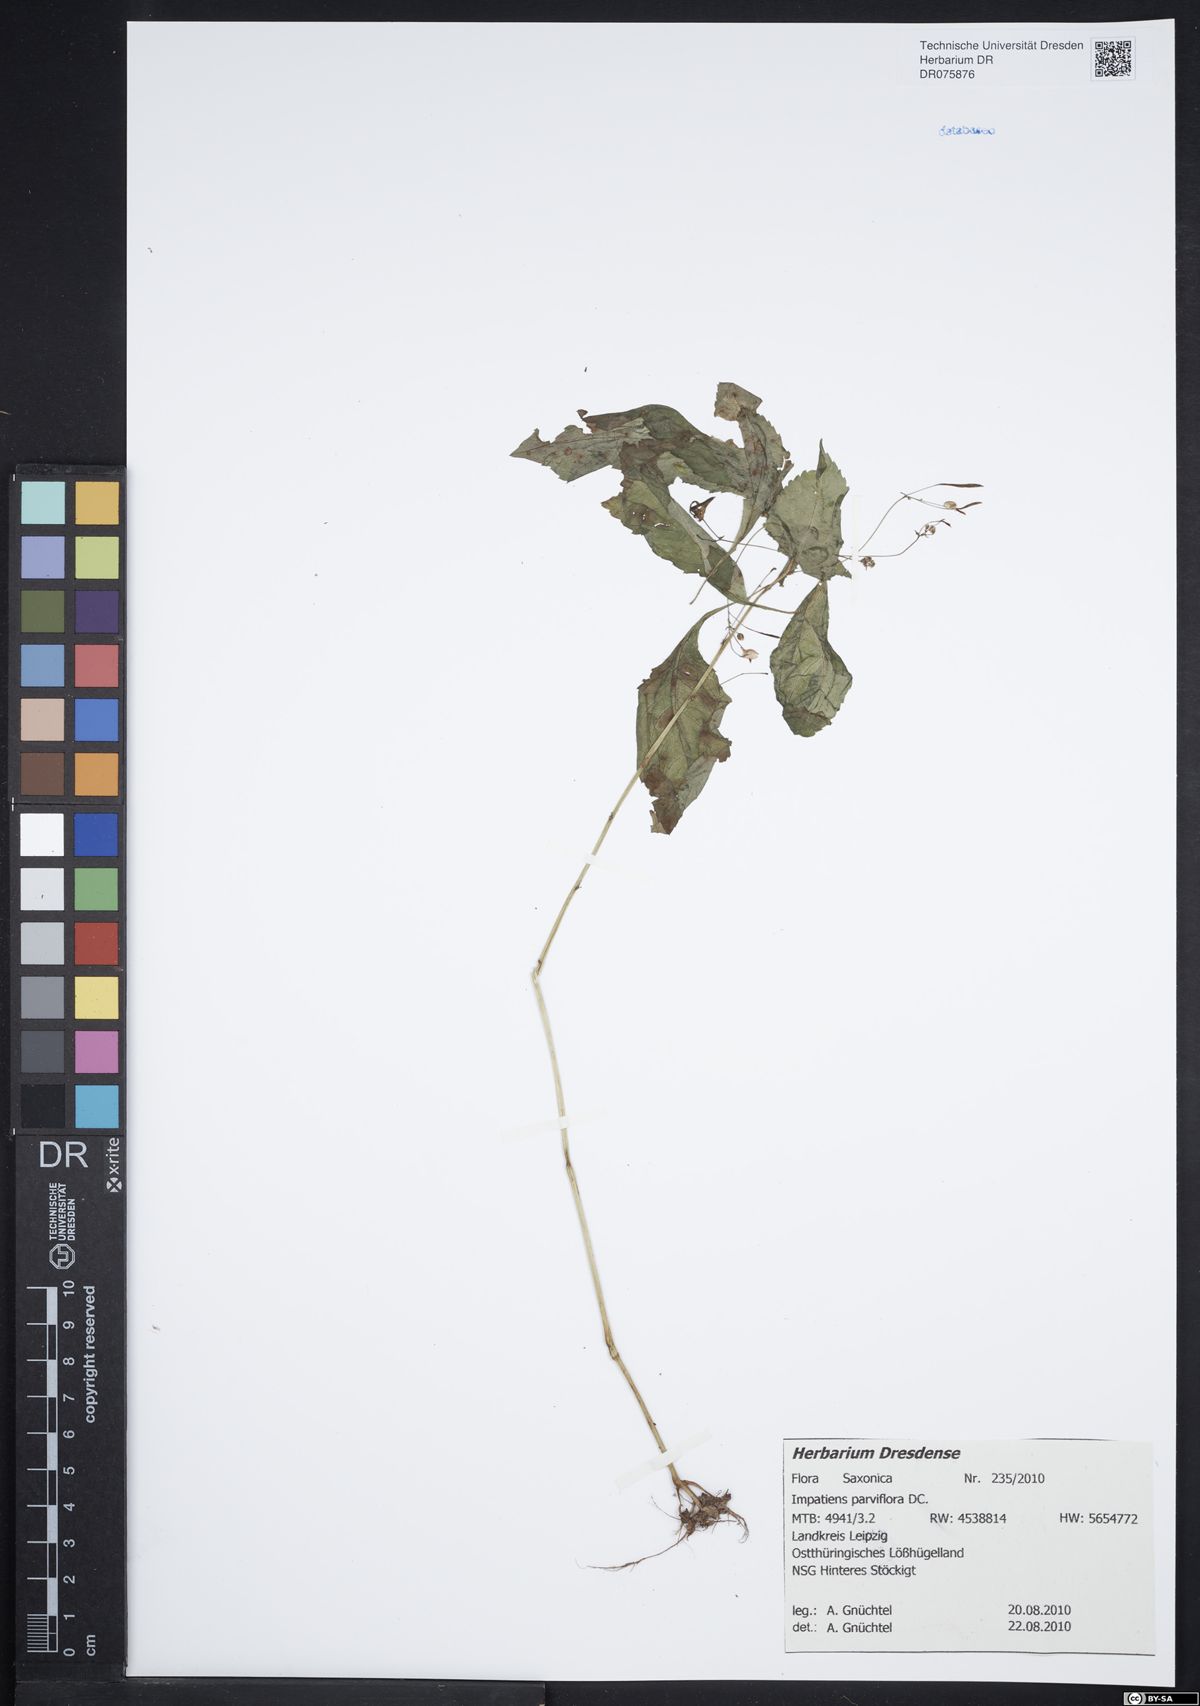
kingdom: Plantae
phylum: Tracheophyta
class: Magnoliopsida
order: Ericales
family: Balsaminaceae
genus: Impatiens
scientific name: Impatiens parviflora
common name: Small balsam
